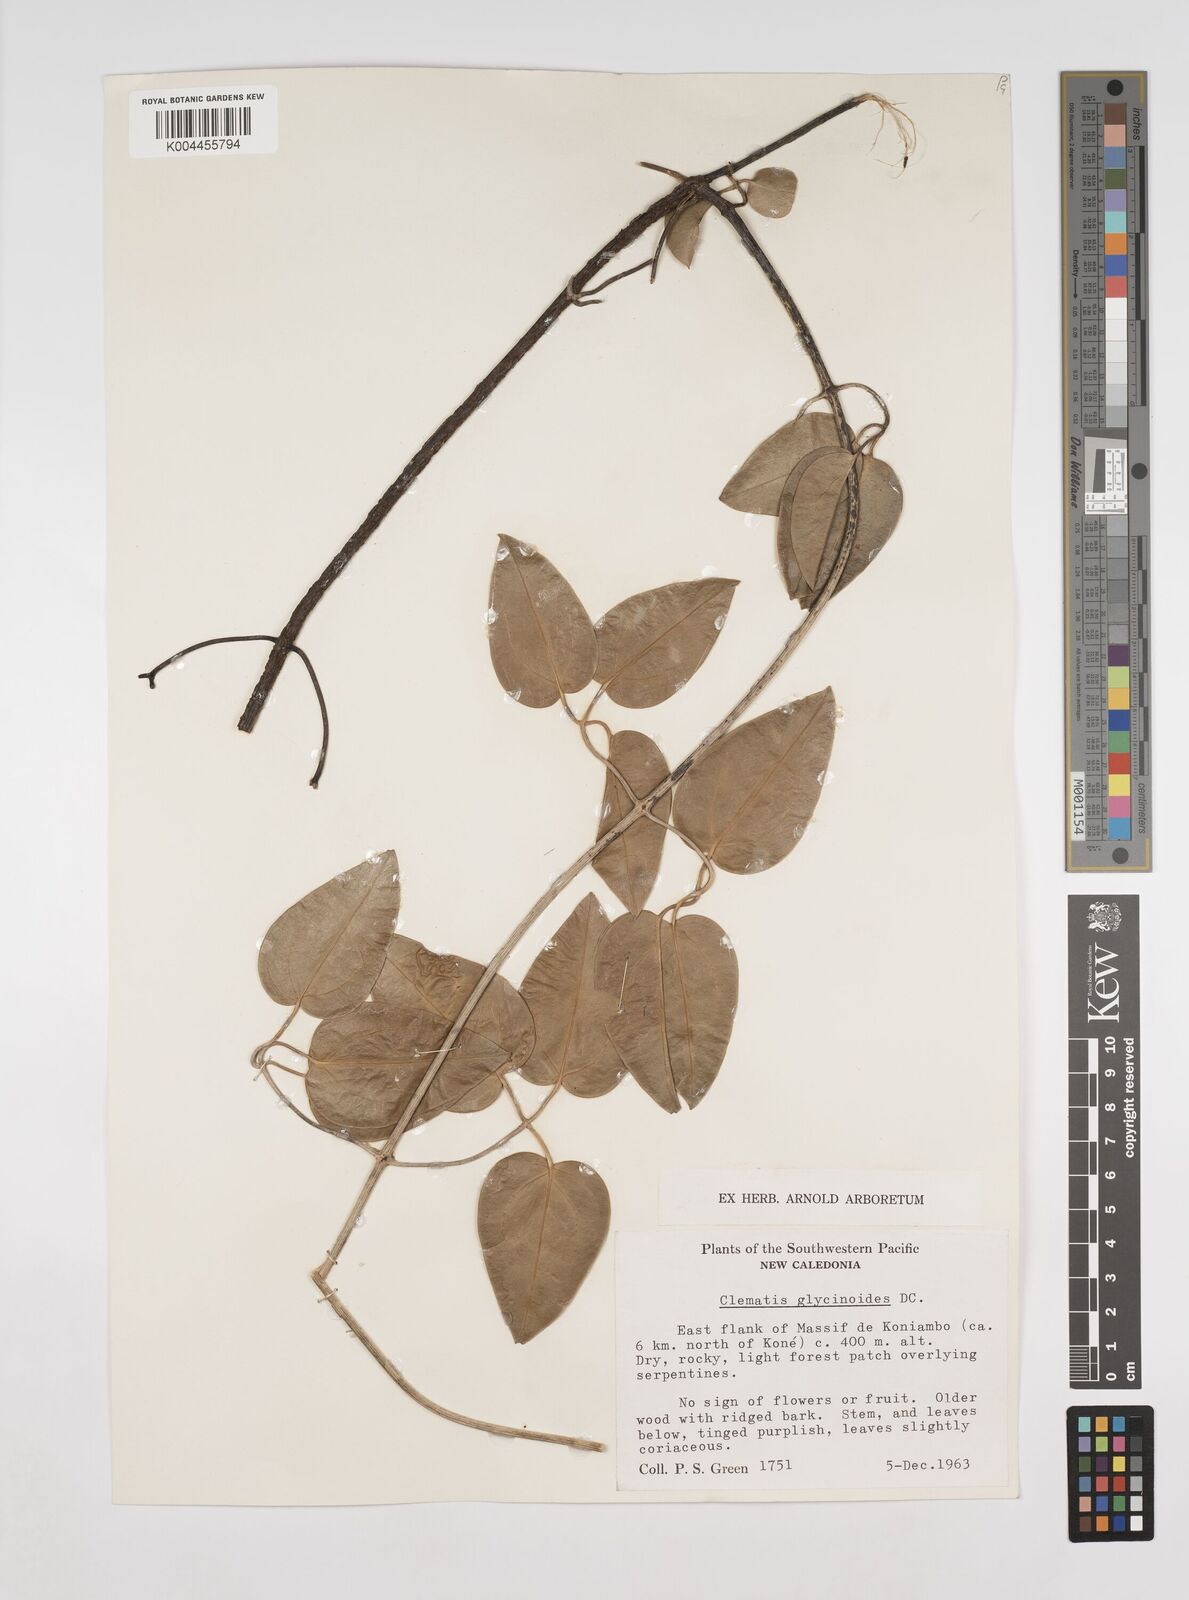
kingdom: Plantae
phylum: Tracheophyta
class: Magnoliopsida
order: Ranunculales
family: Ranunculaceae
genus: Clematis
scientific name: Clematis glycinoides
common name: Forest clematis
